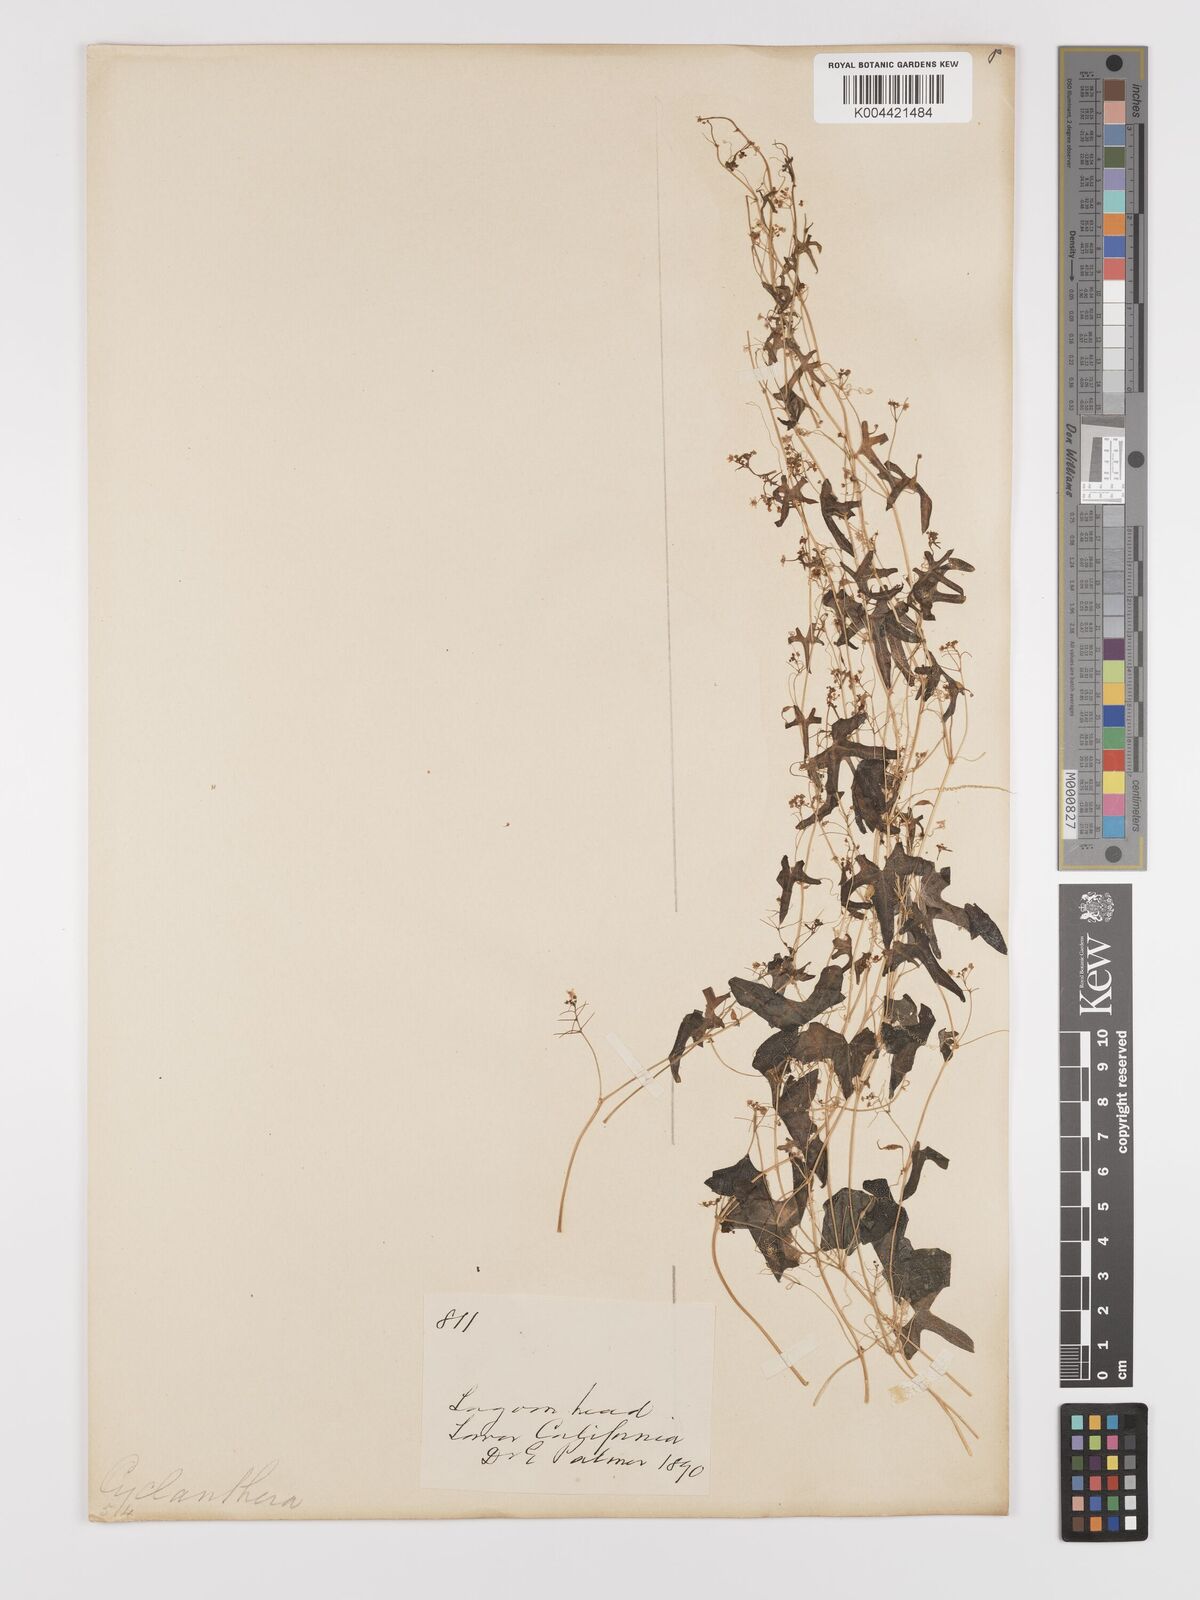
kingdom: Plantae
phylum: Tracheophyta
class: Magnoliopsida
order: Cucurbitales
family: Cucurbitaceae
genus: Echinopepon
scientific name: Echinopepon bigelovii
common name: Desert starvine
